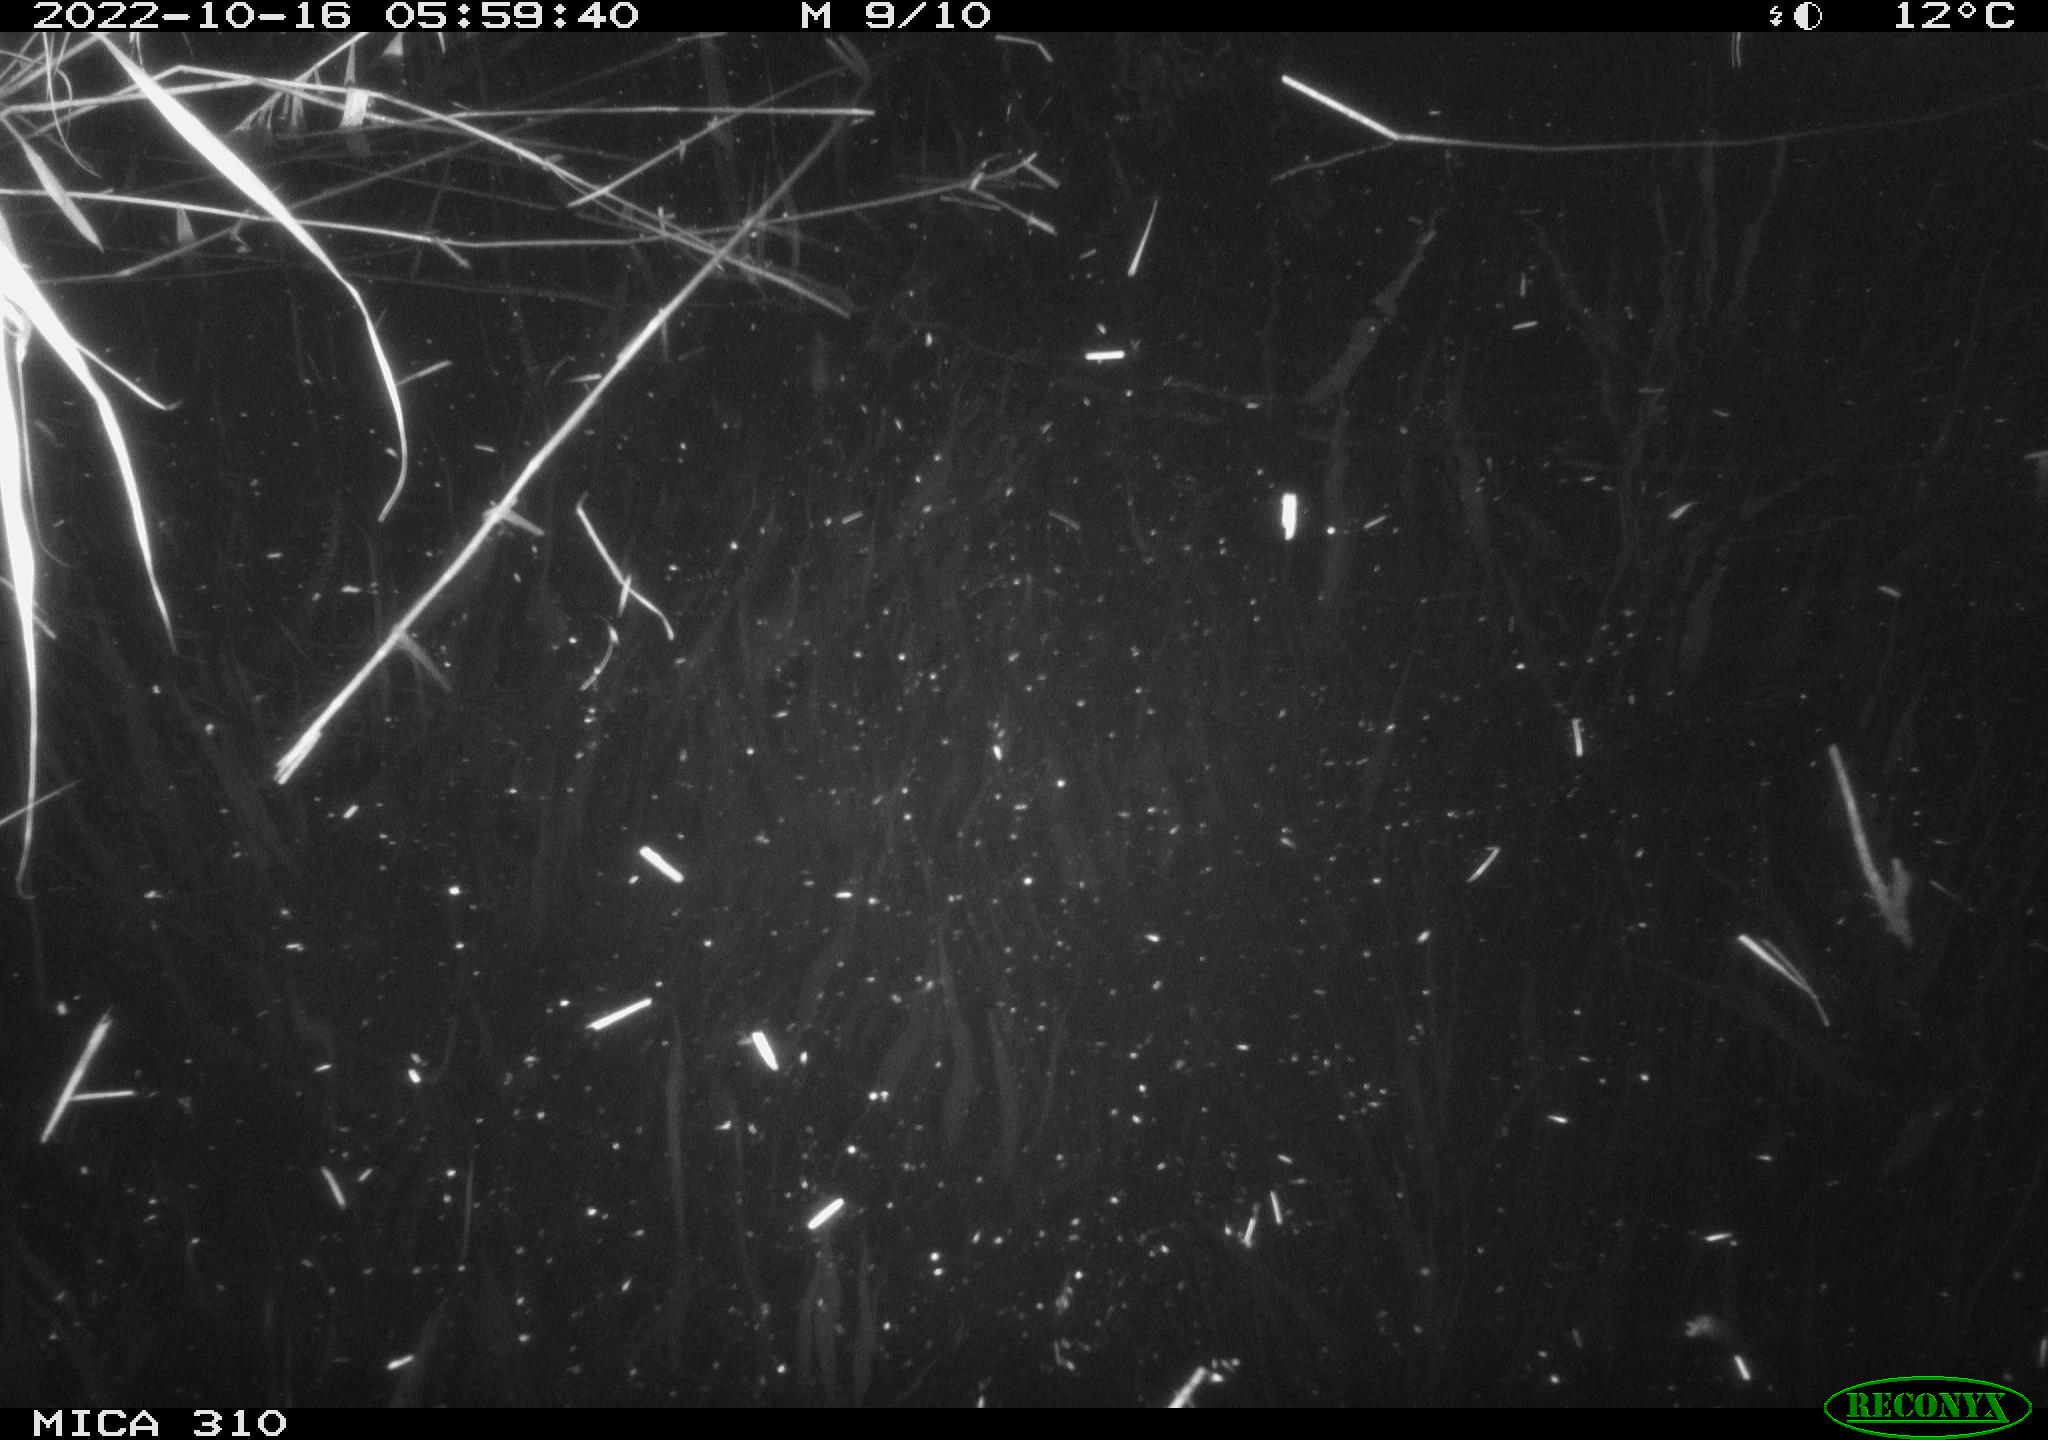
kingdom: Animalia
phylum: Chordata
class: Mammalia
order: Rodentia
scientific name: Rodentia
